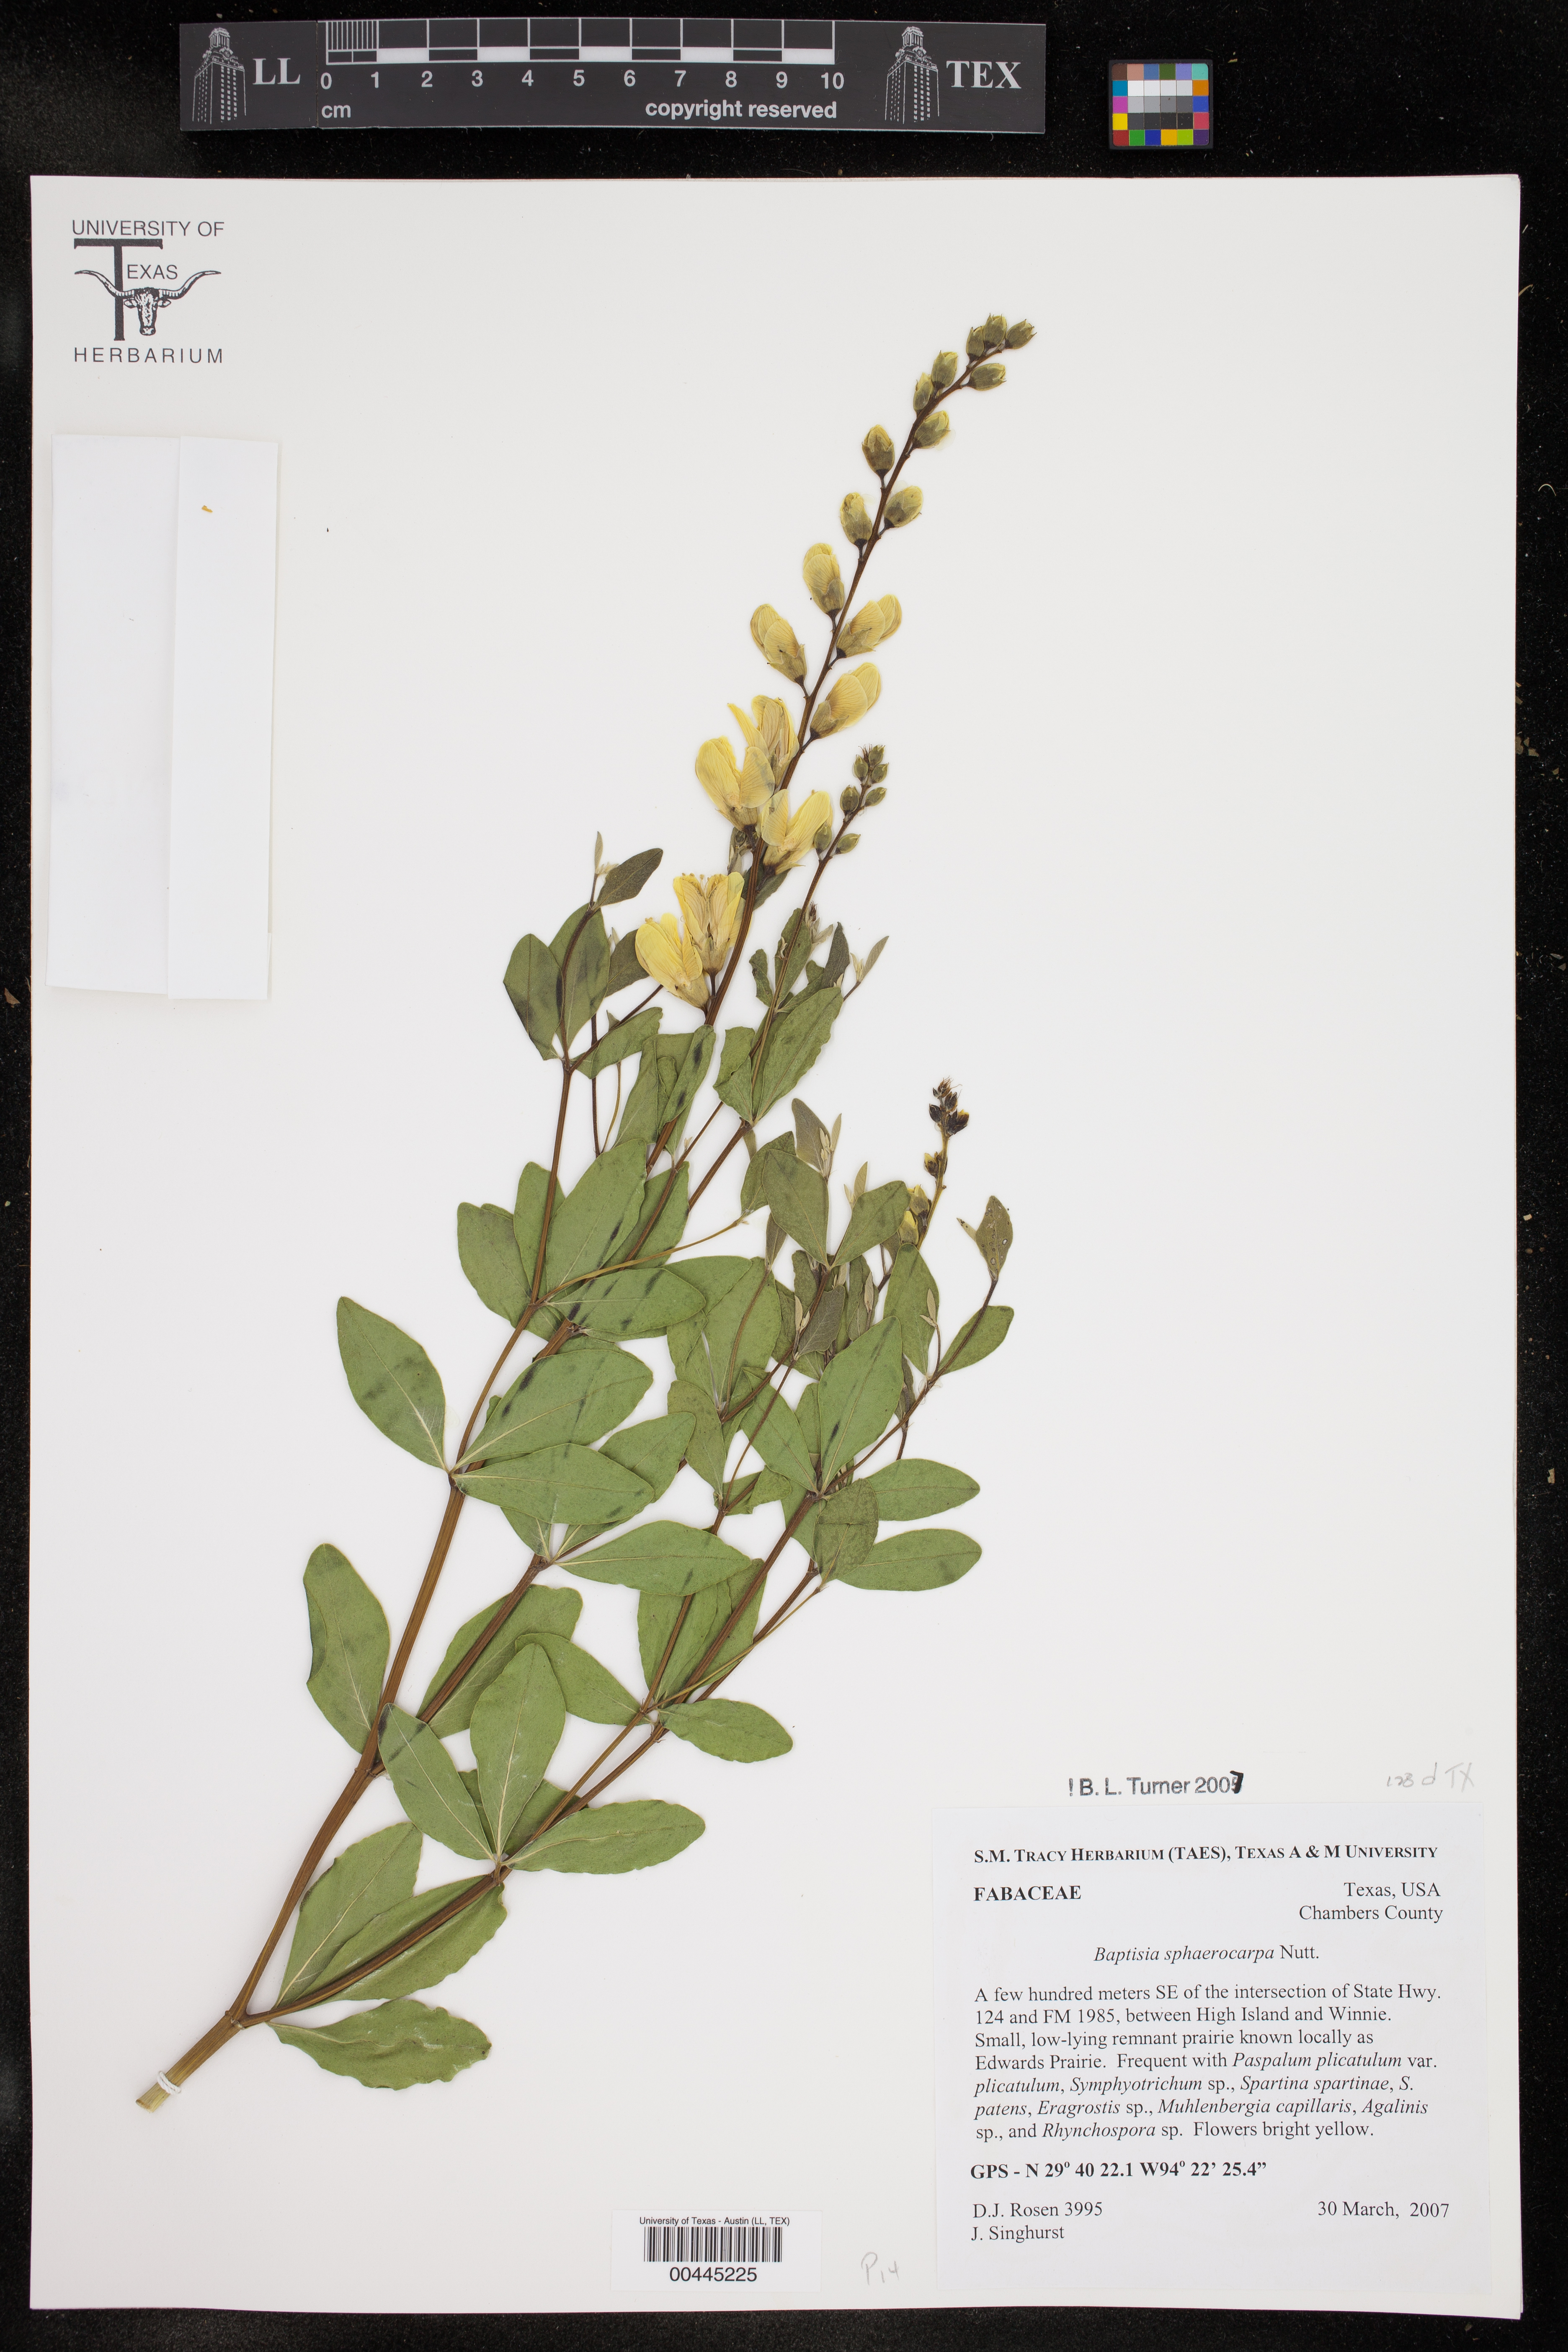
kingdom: Plantae
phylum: Tracheophyta
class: Magnoliopsida
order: Fabales
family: Fabaceae
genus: Baptisia
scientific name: Baptisia sphaerocarpa
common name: Round wild indigo
